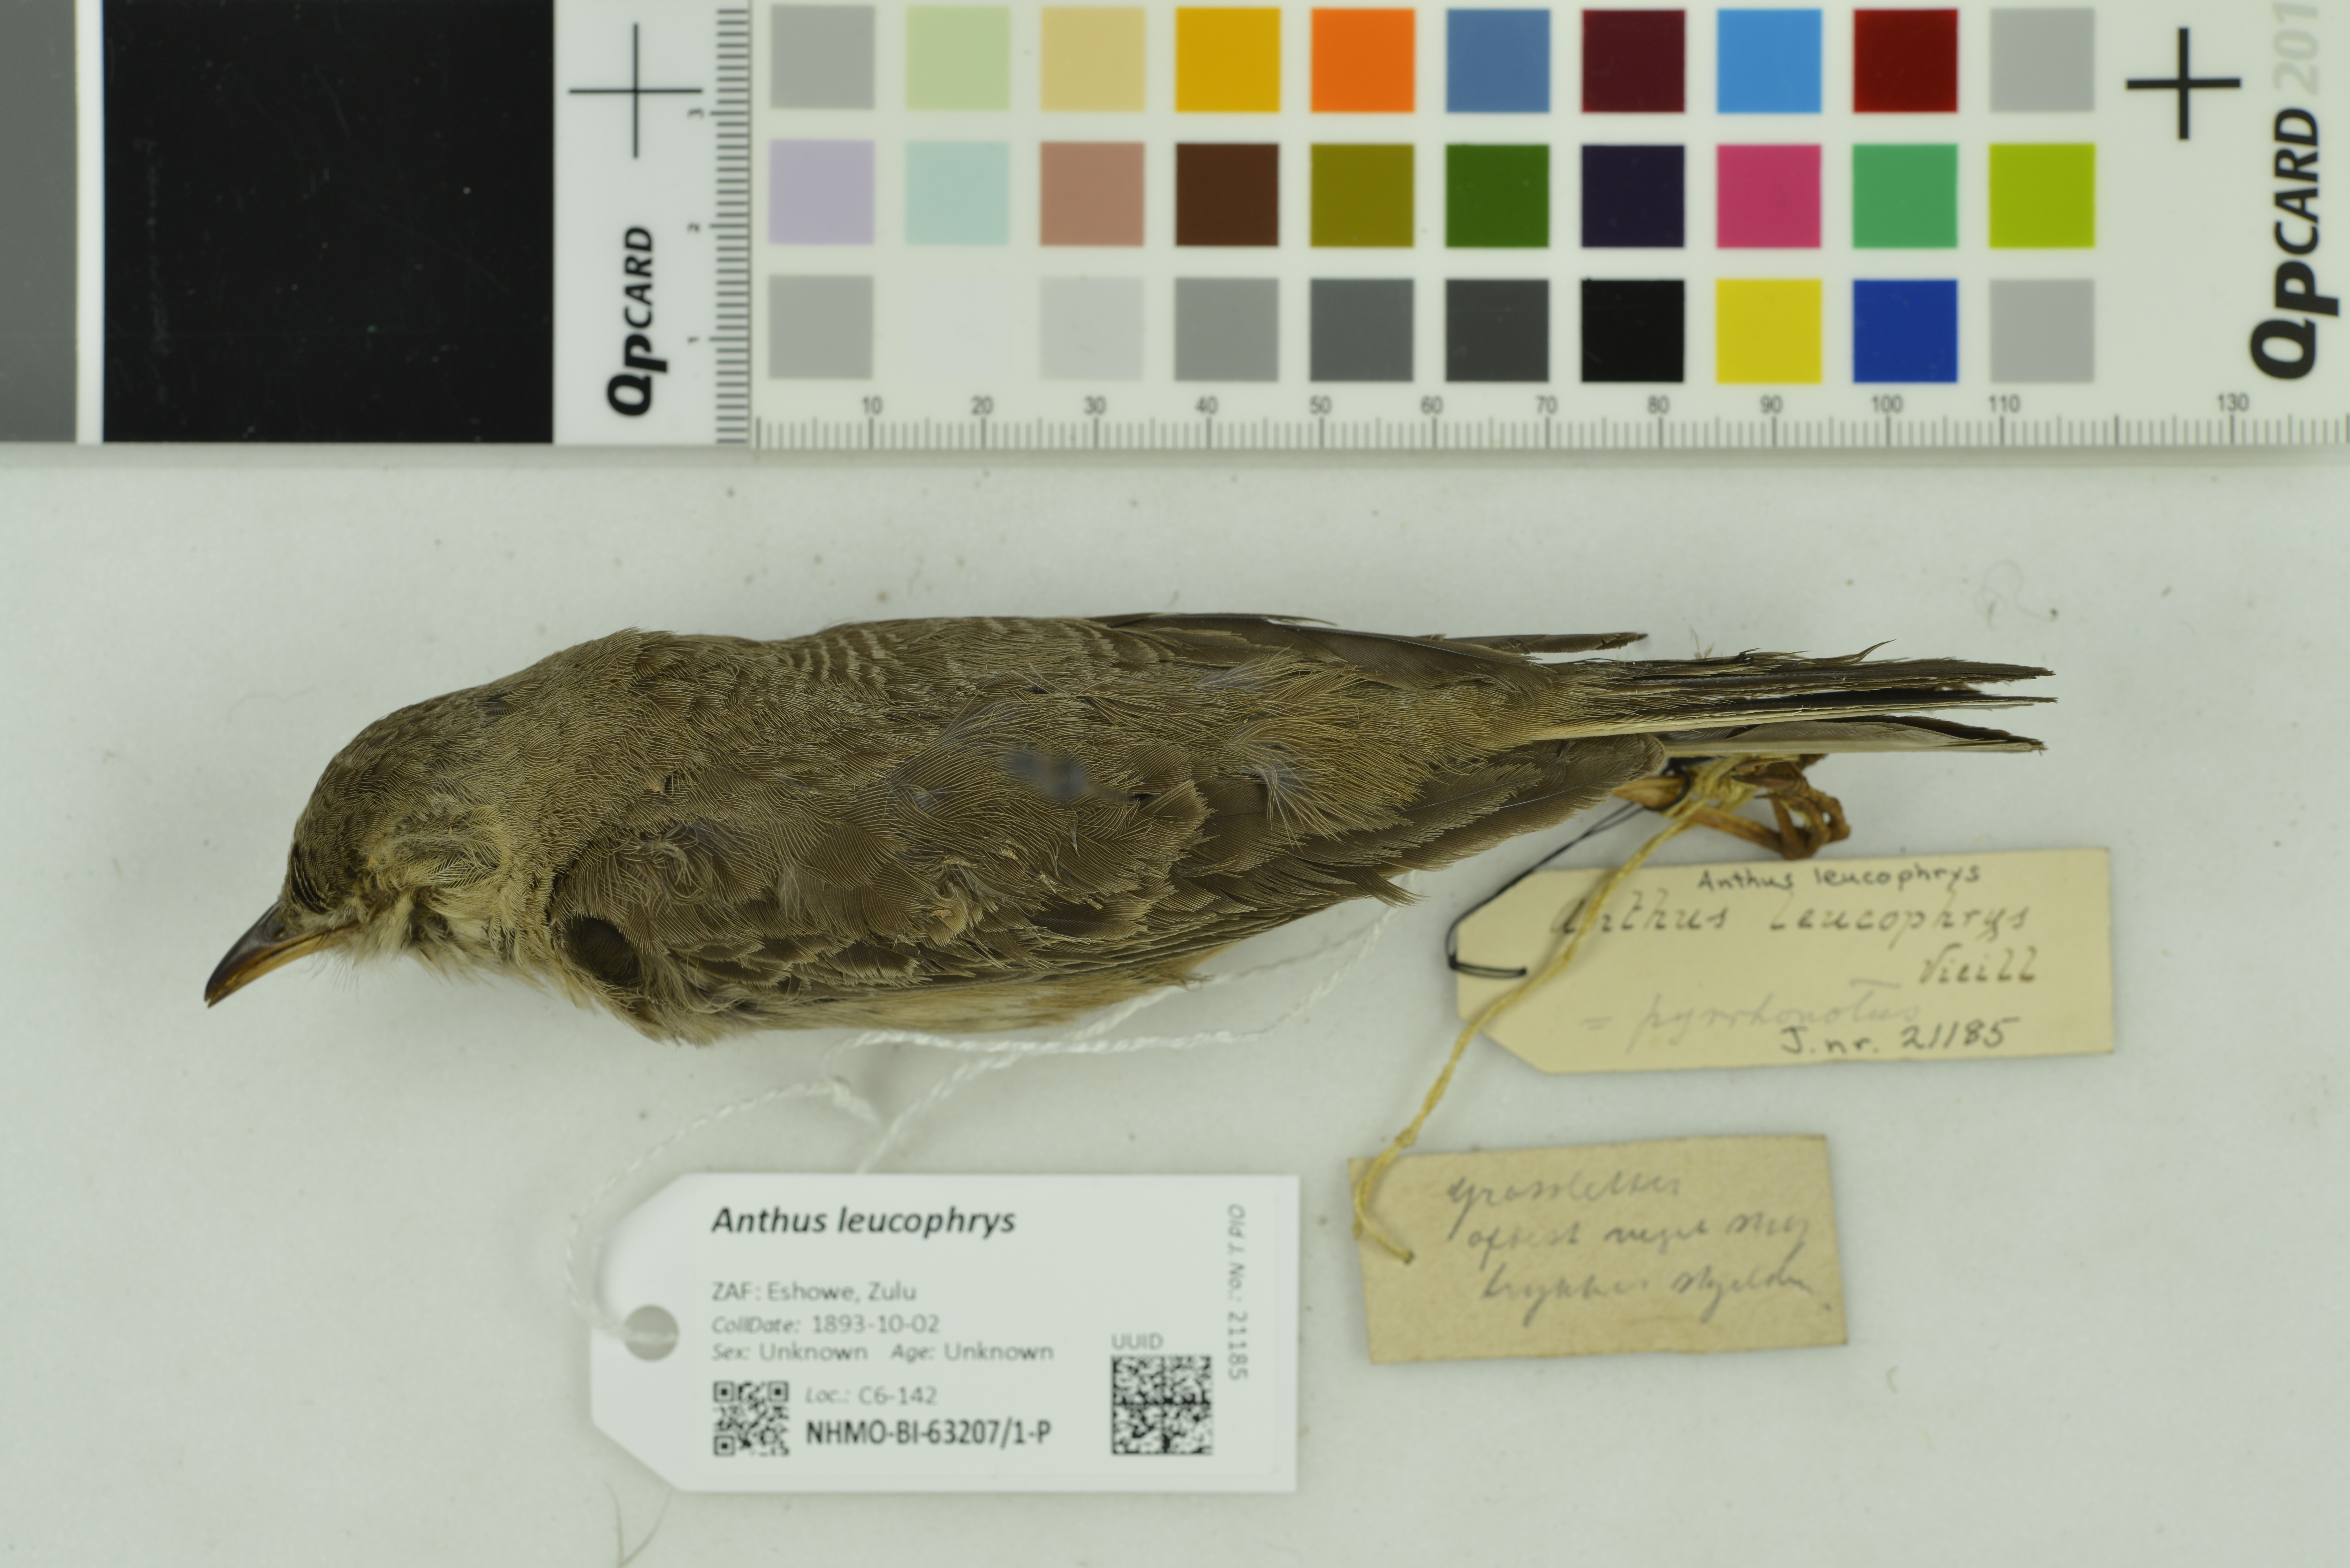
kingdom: Animalia
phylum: Chordata
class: Aves
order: Passeriformes
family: Motacillidae
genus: Anthus
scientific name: Anthus leucophrys
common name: Plain-backed pipit
